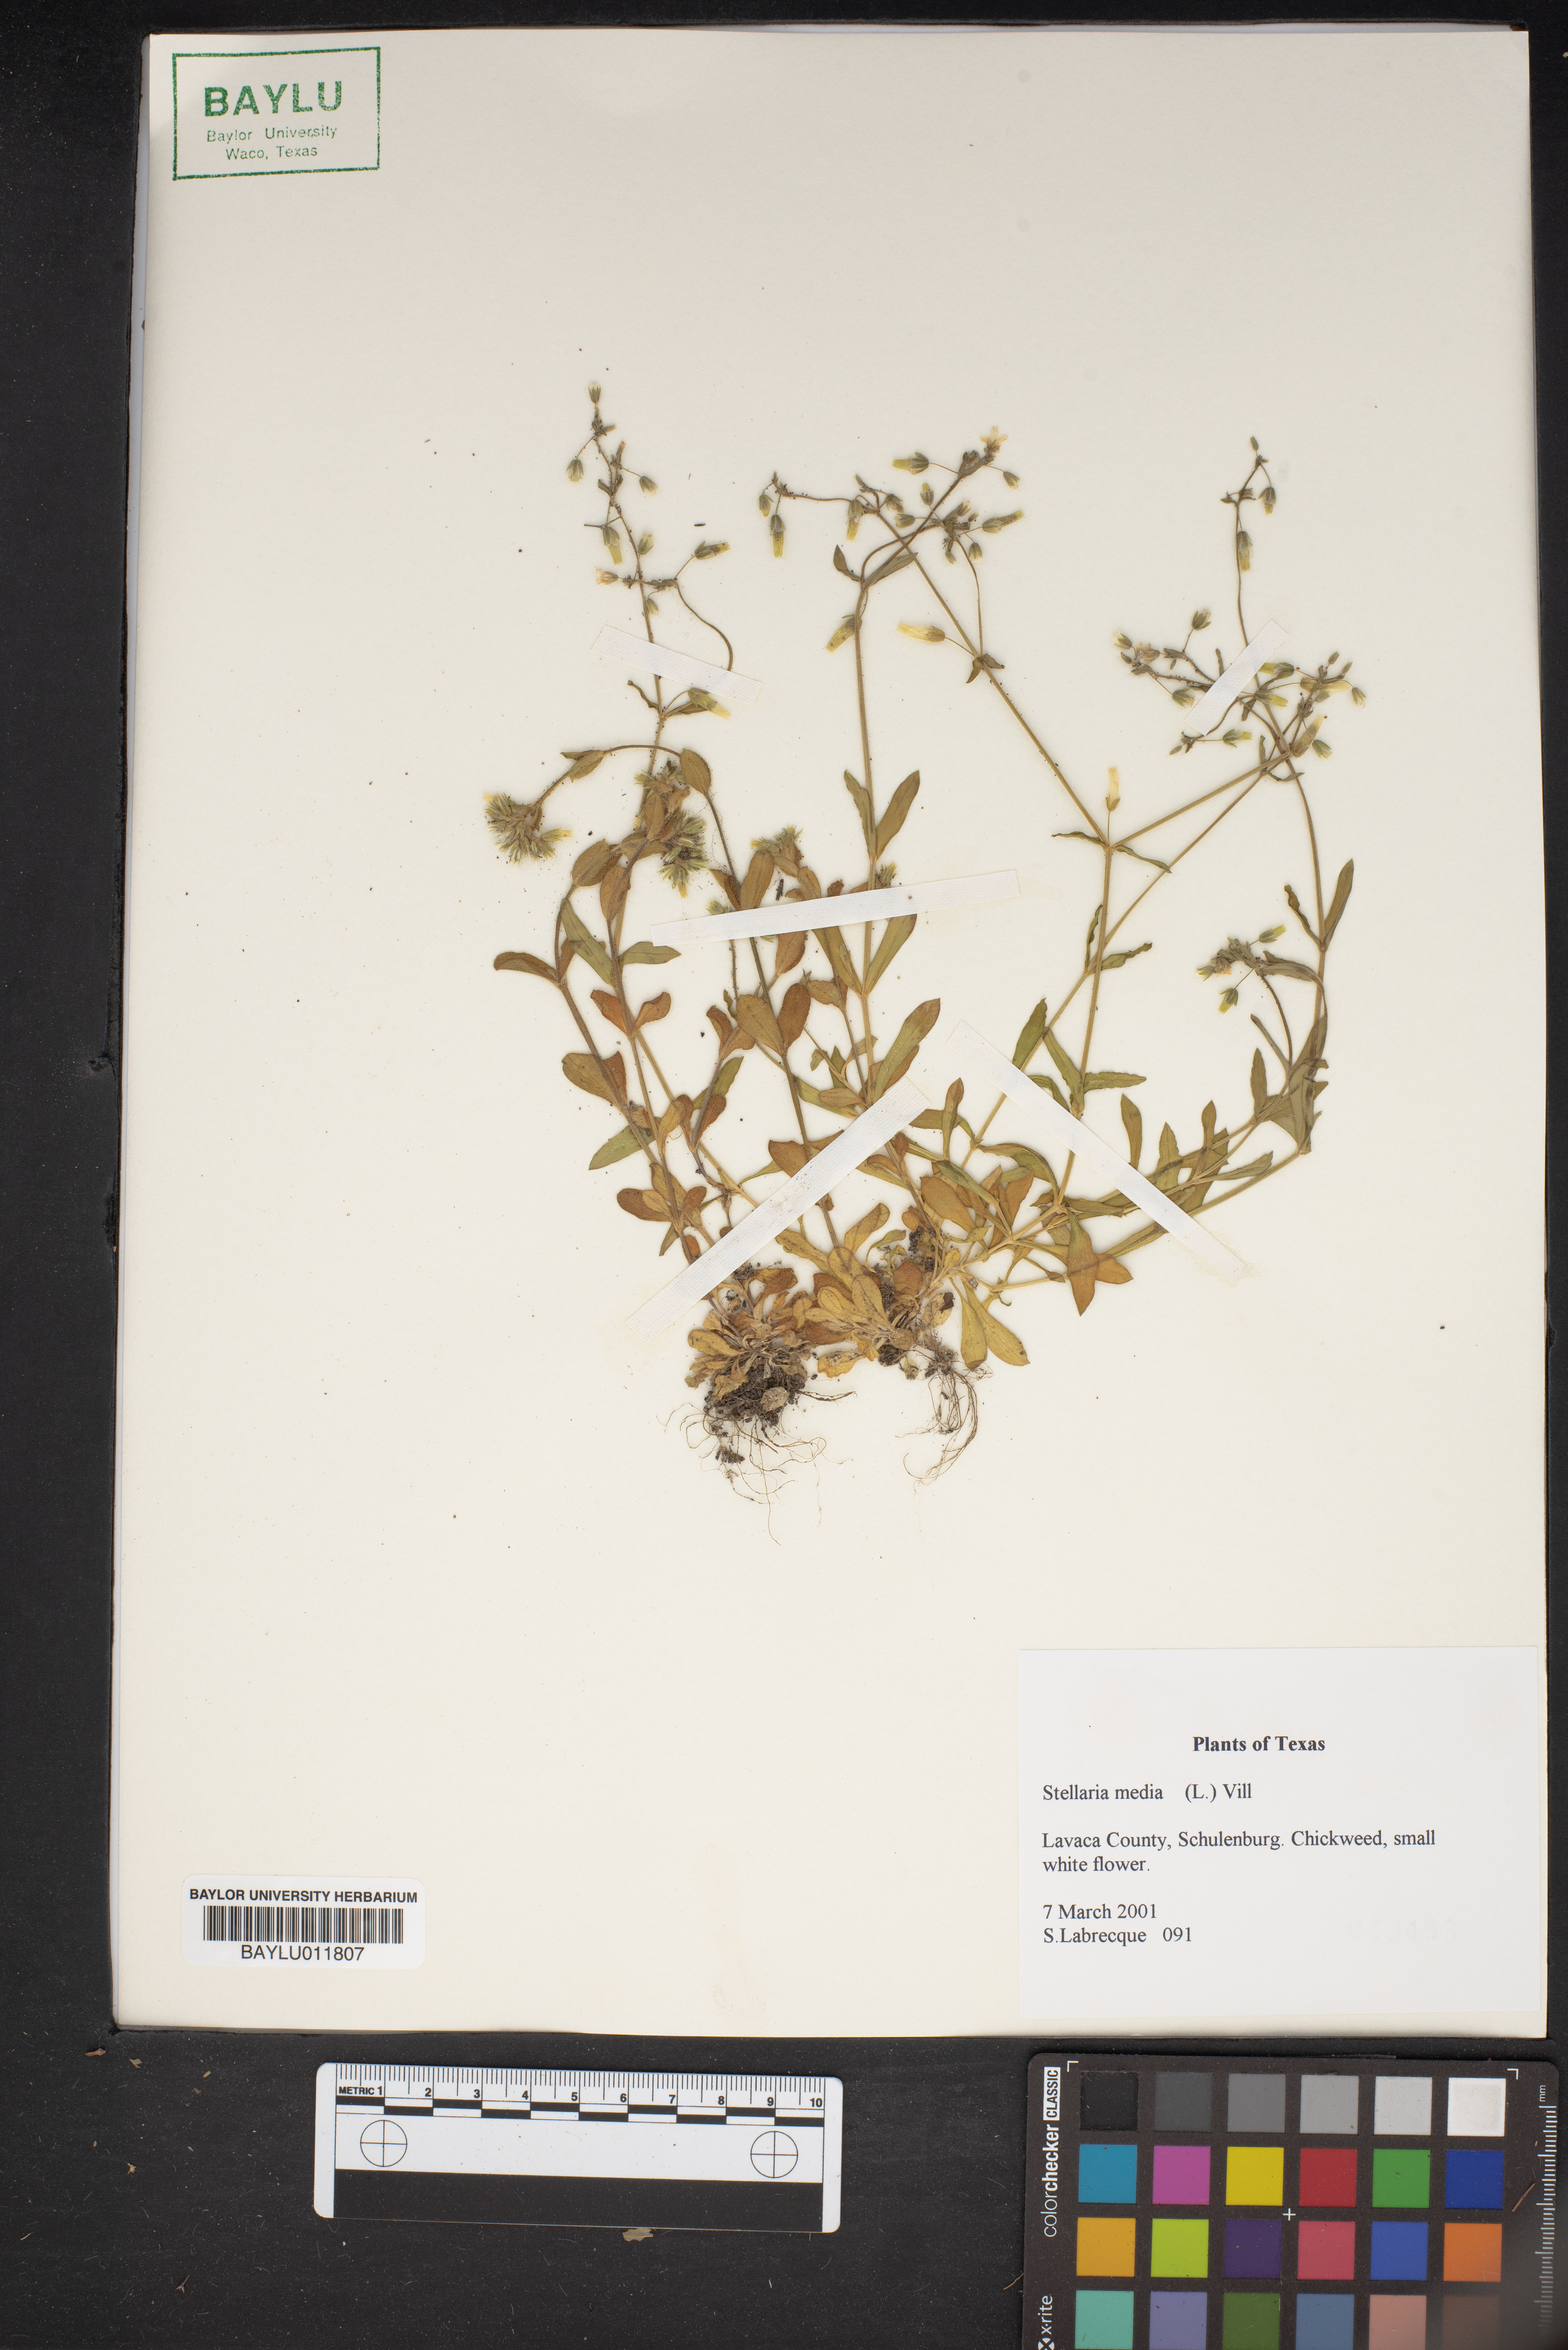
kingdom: Plantae
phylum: Tracheophyta
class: Magnoliopsida
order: Caryophyllales
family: Caryophyllaceae
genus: Stellaria
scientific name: Stellaria media
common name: Common chickweed
